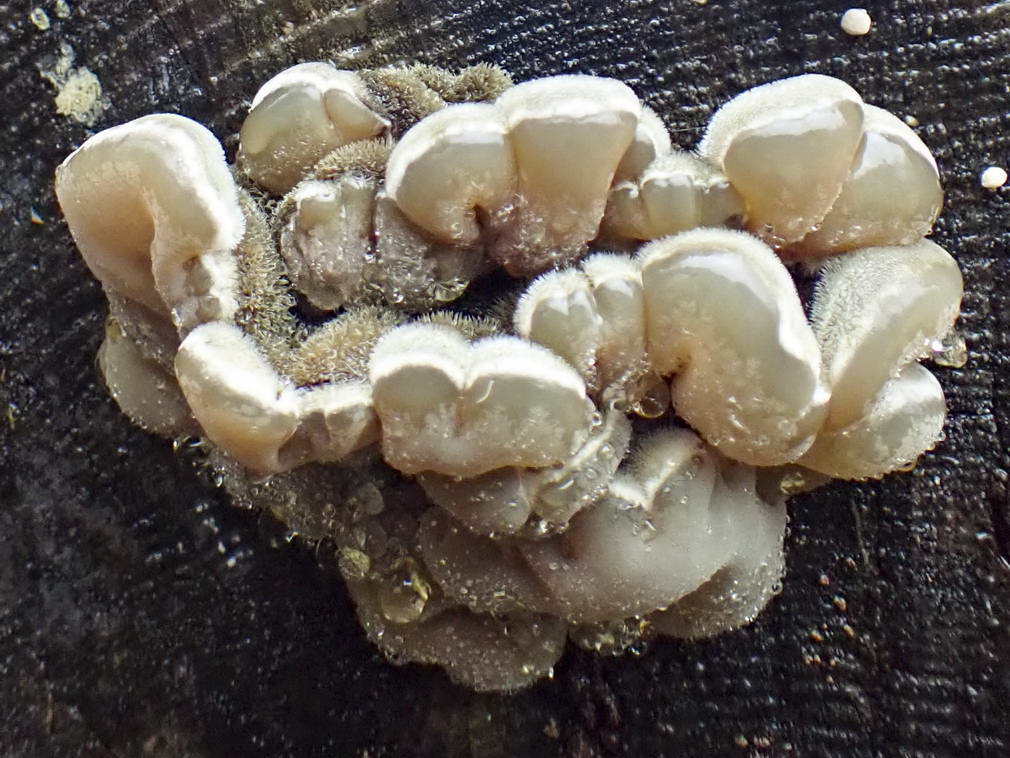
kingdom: Fungi
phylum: Basidiomycota
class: Agaricomycetes
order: Auriculariales
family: Auriculariaceae
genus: Auricularia
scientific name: Auricularia mesenterica
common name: håret judasøre
